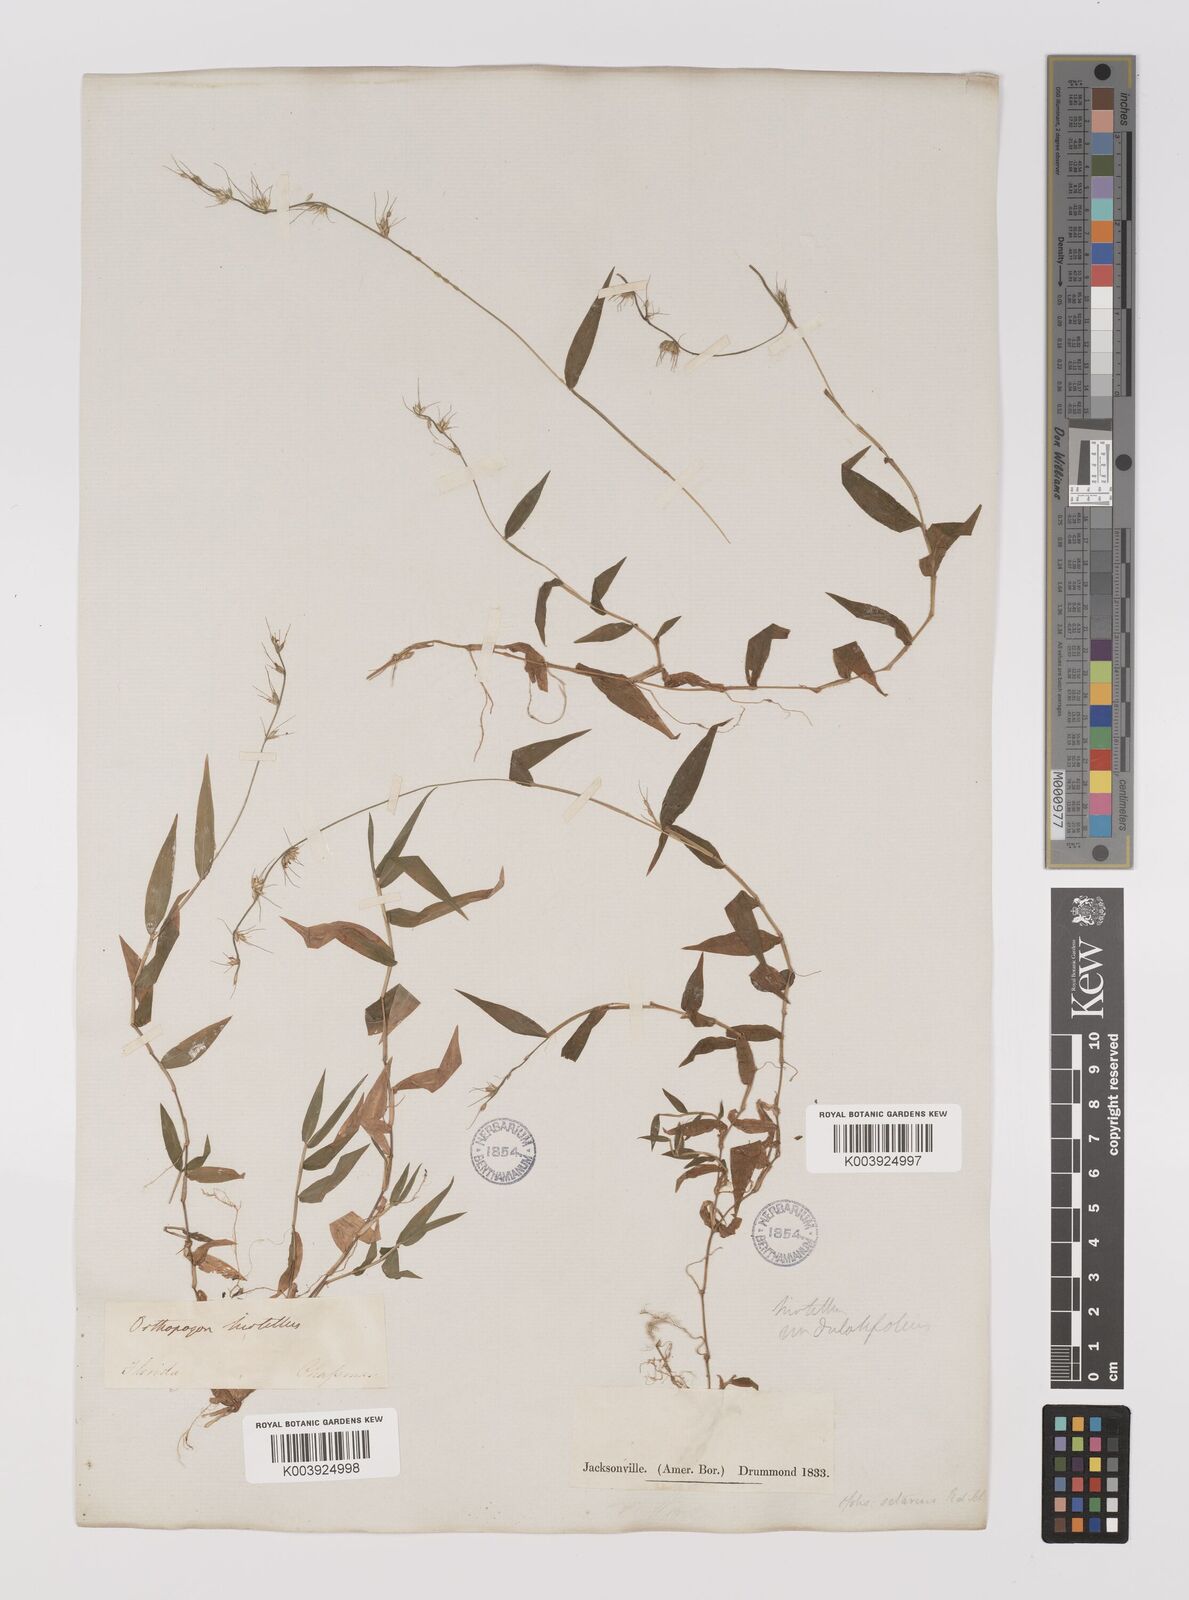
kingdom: Plantae
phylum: Tracheophyta
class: Liliopsida
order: Poales
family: Poaceae
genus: Oplismenus
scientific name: Oplismenus undulatifolius
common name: Wavyleaf basketgrass
